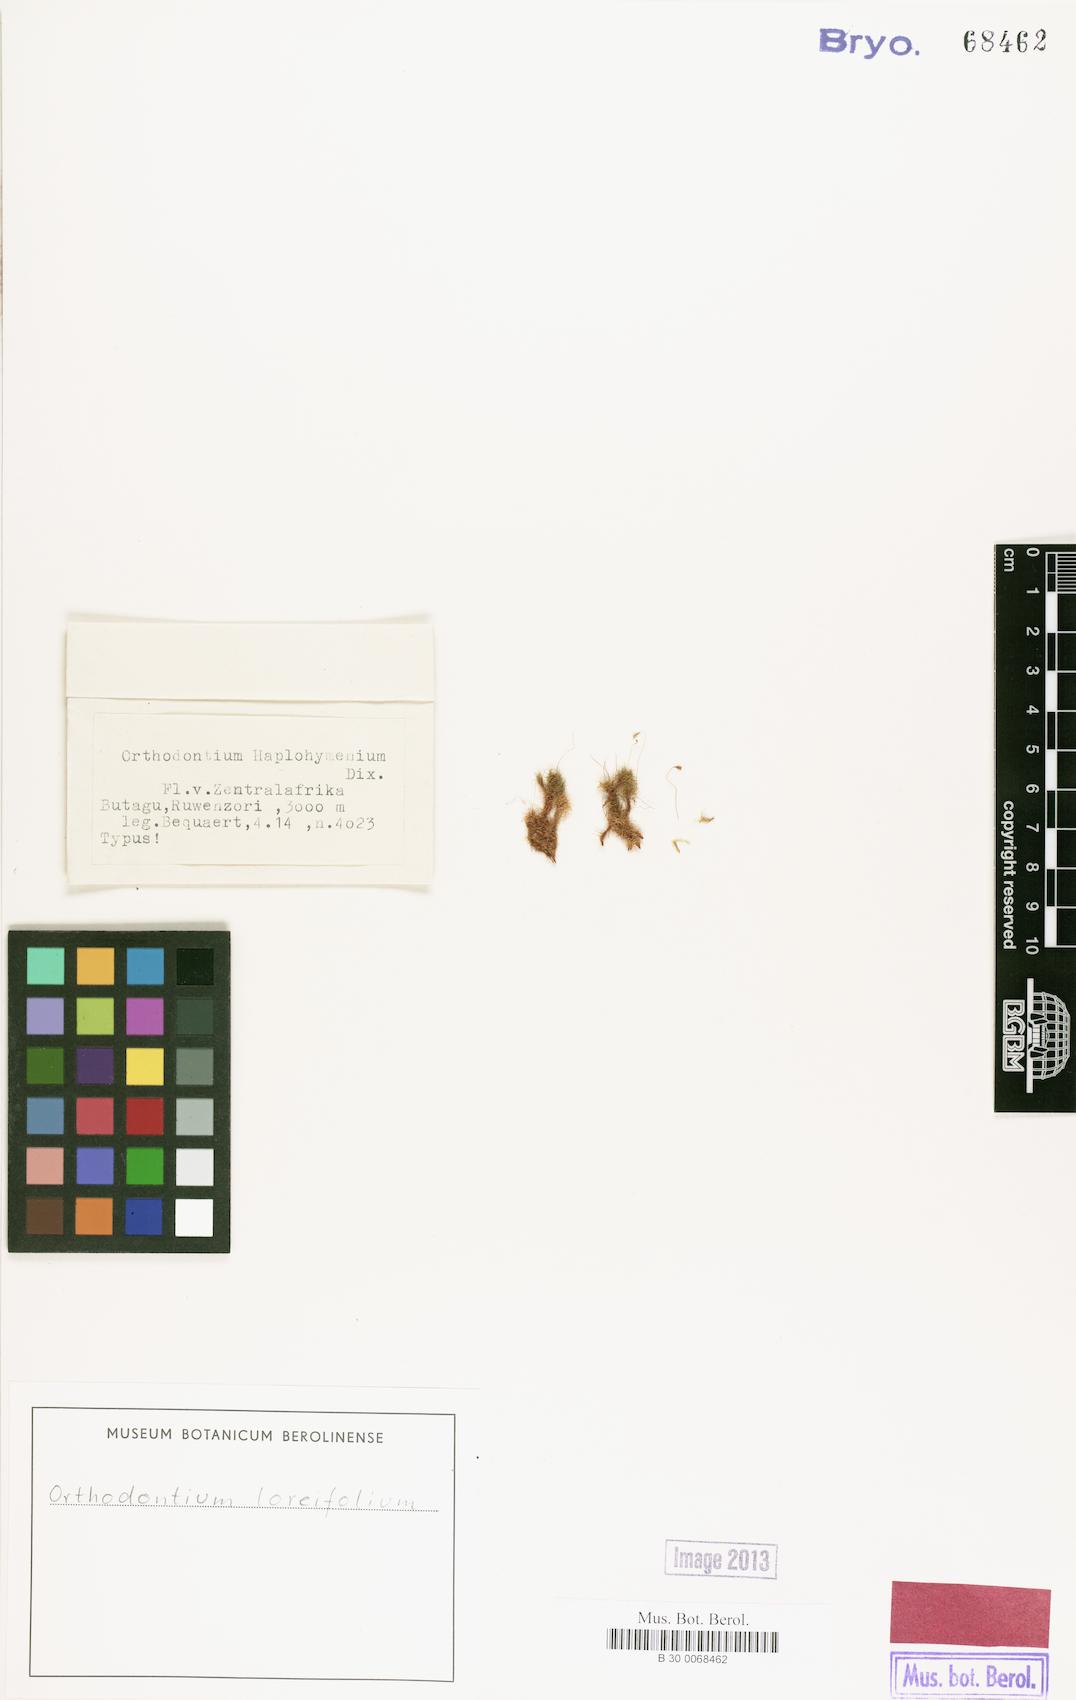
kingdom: Plantae
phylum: Bryophyta
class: Bryopsida
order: Orthodontiales
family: Orthodontiaceae
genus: Orthodontium
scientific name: Orthodontium loreifolium
